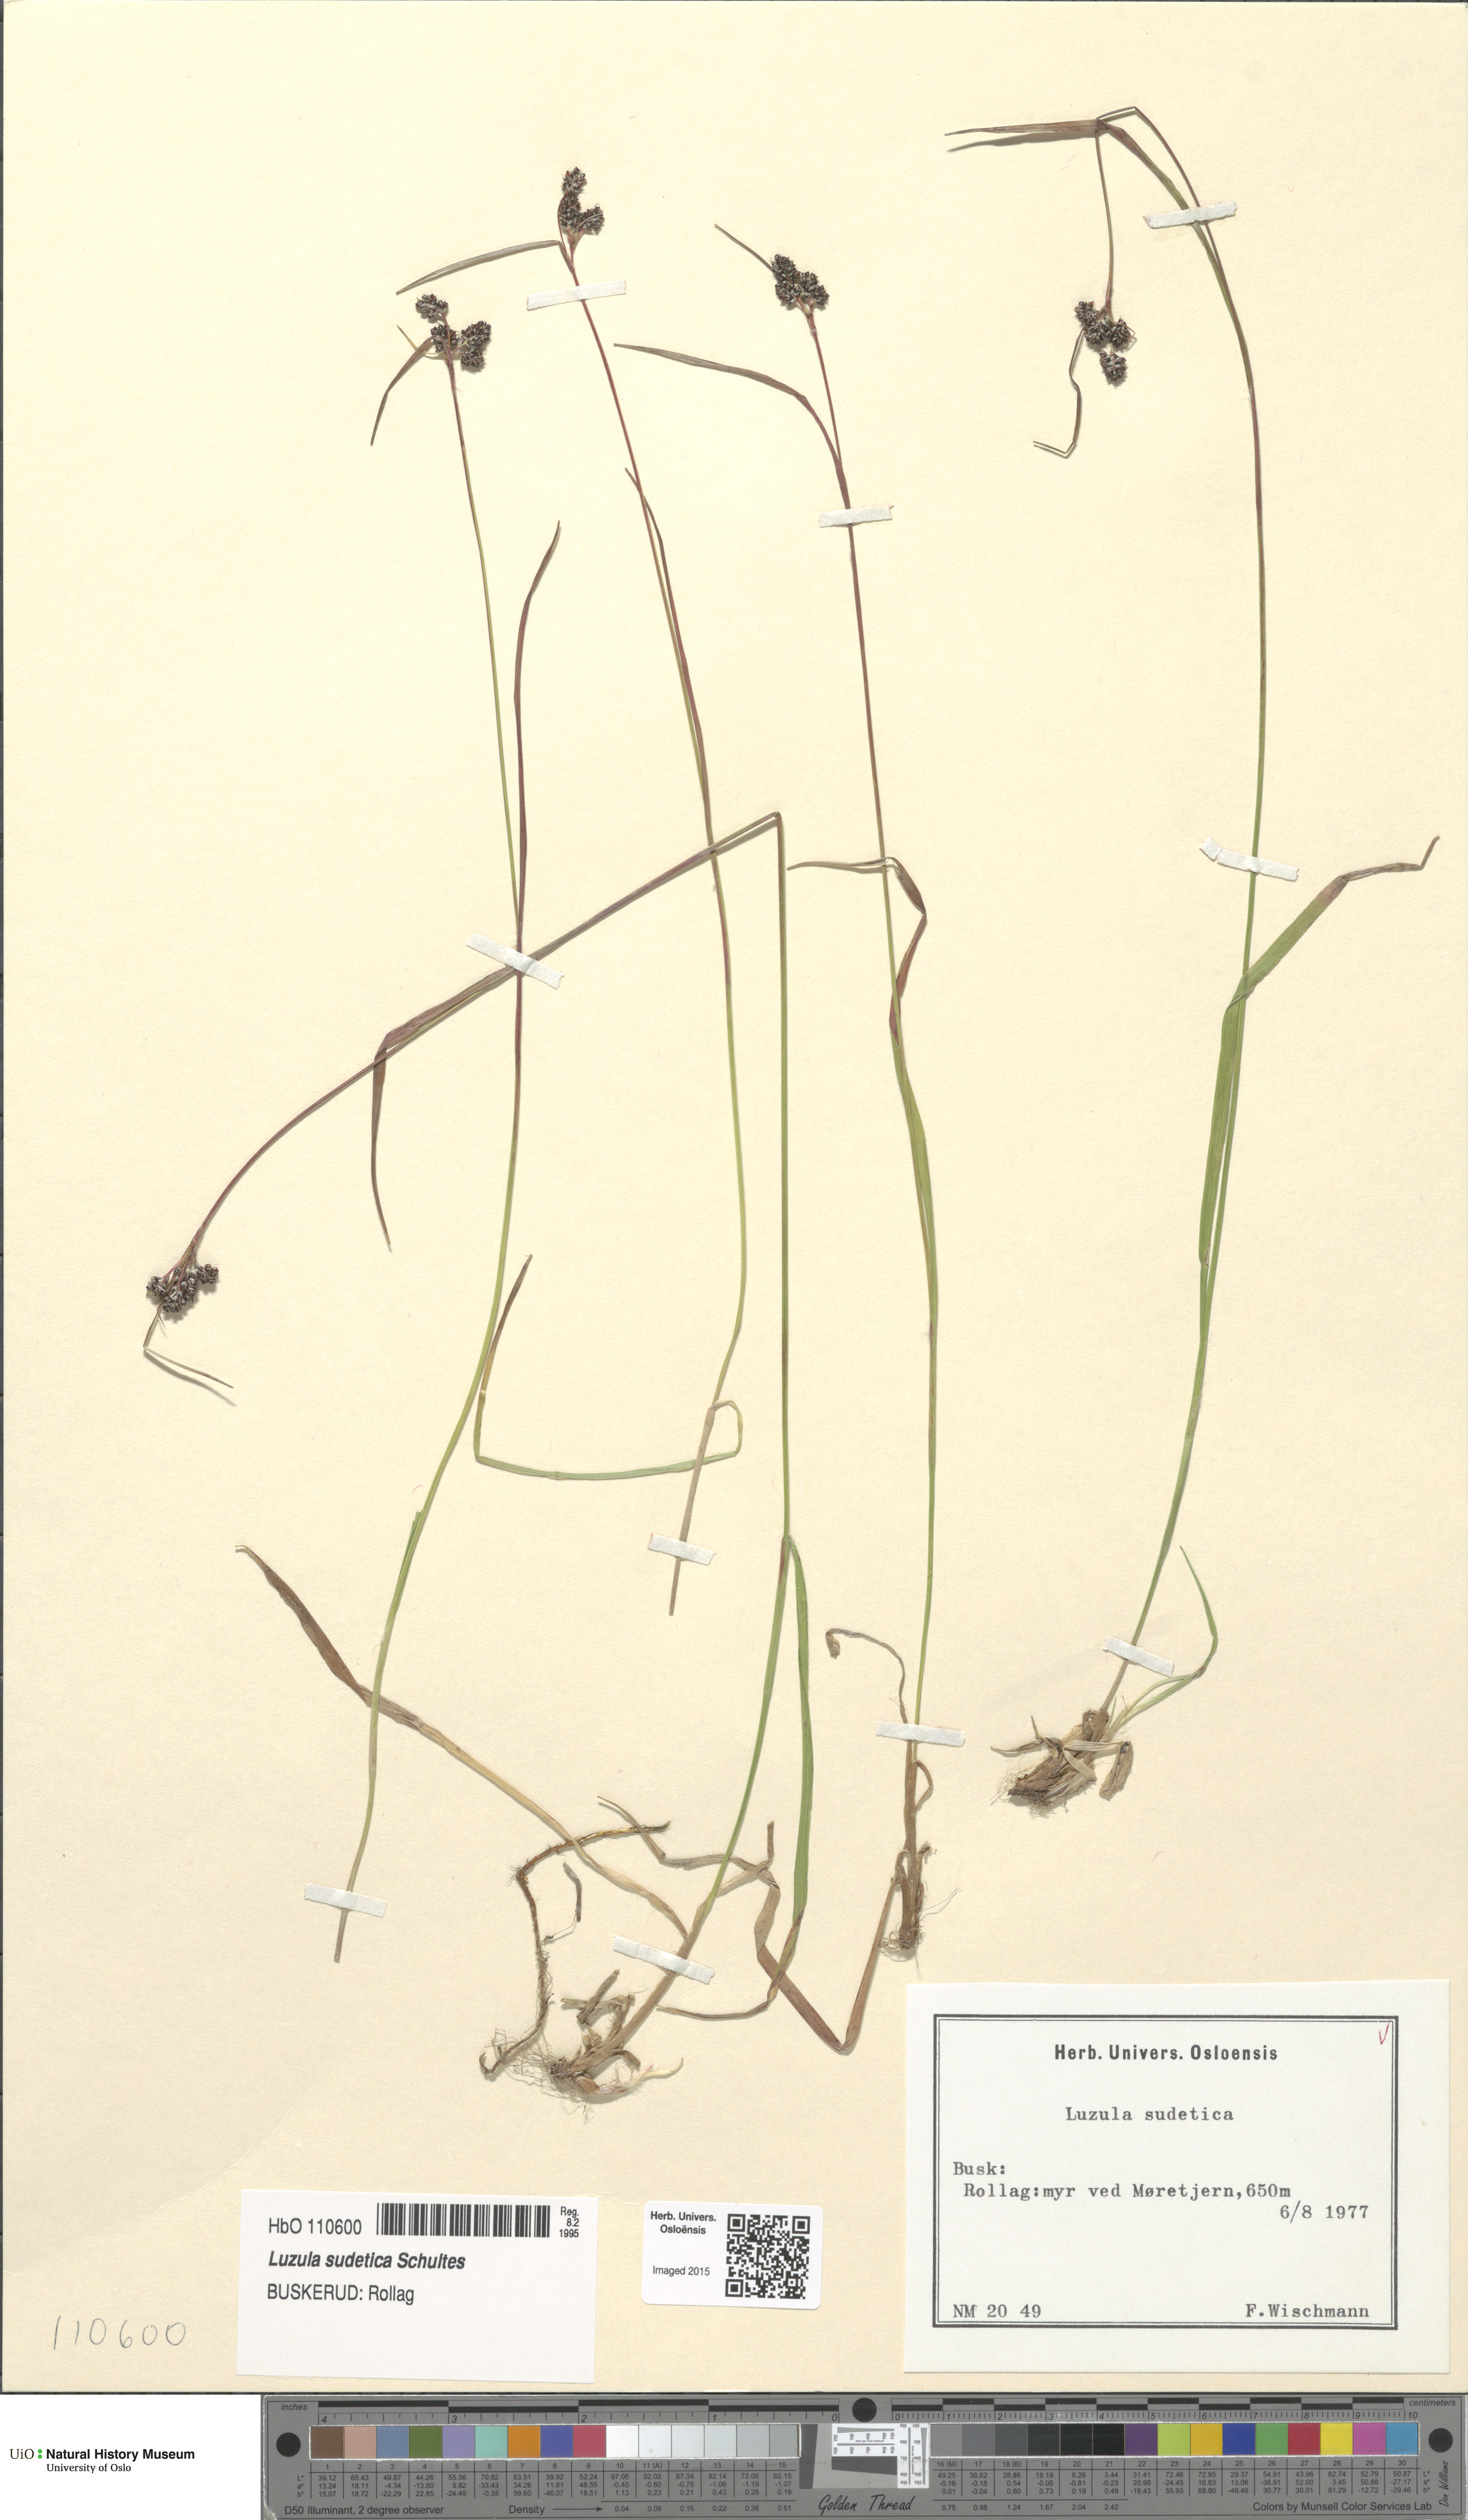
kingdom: Plantae
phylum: Tracheophyta
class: Liliopsida
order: Poales
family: Juncaceae
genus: Luzula
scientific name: Luzula sudetica
